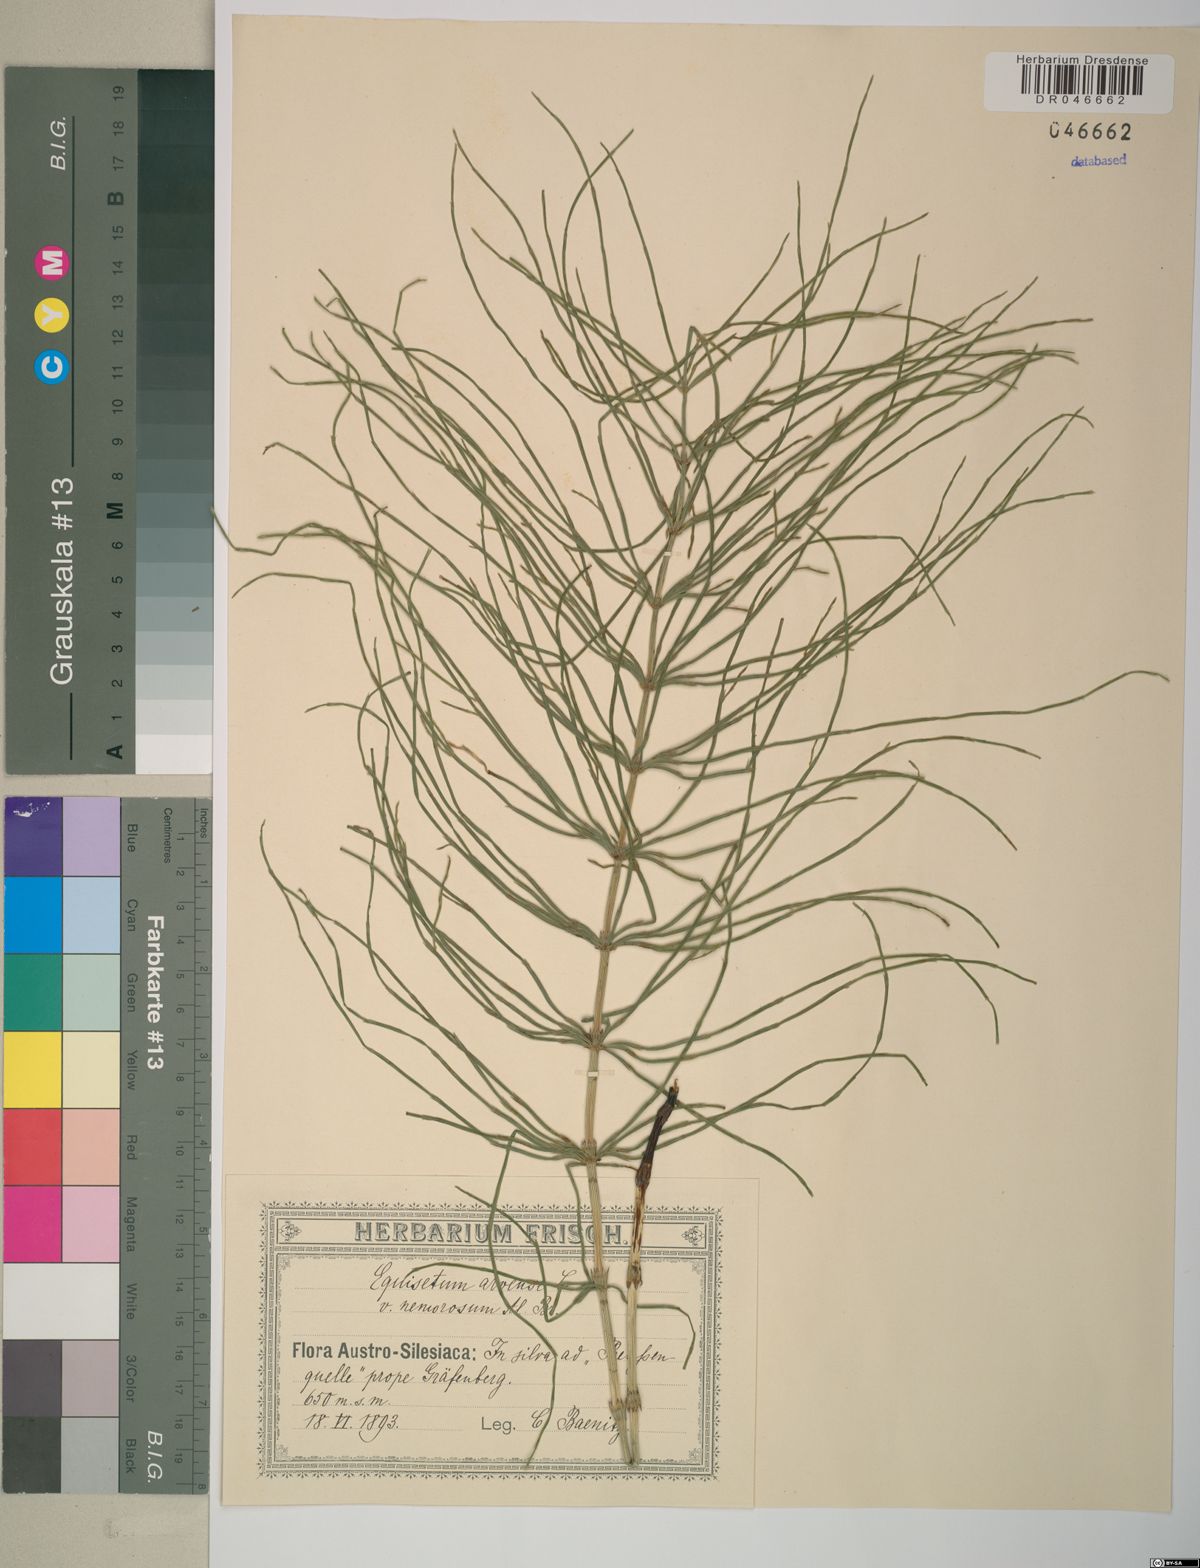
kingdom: Plantae
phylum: Tracheophyta
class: Polypodiopsida
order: Equisetales
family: Equisetaceae
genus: Equisetum
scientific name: Equisetum arvense
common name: Field horsetail
